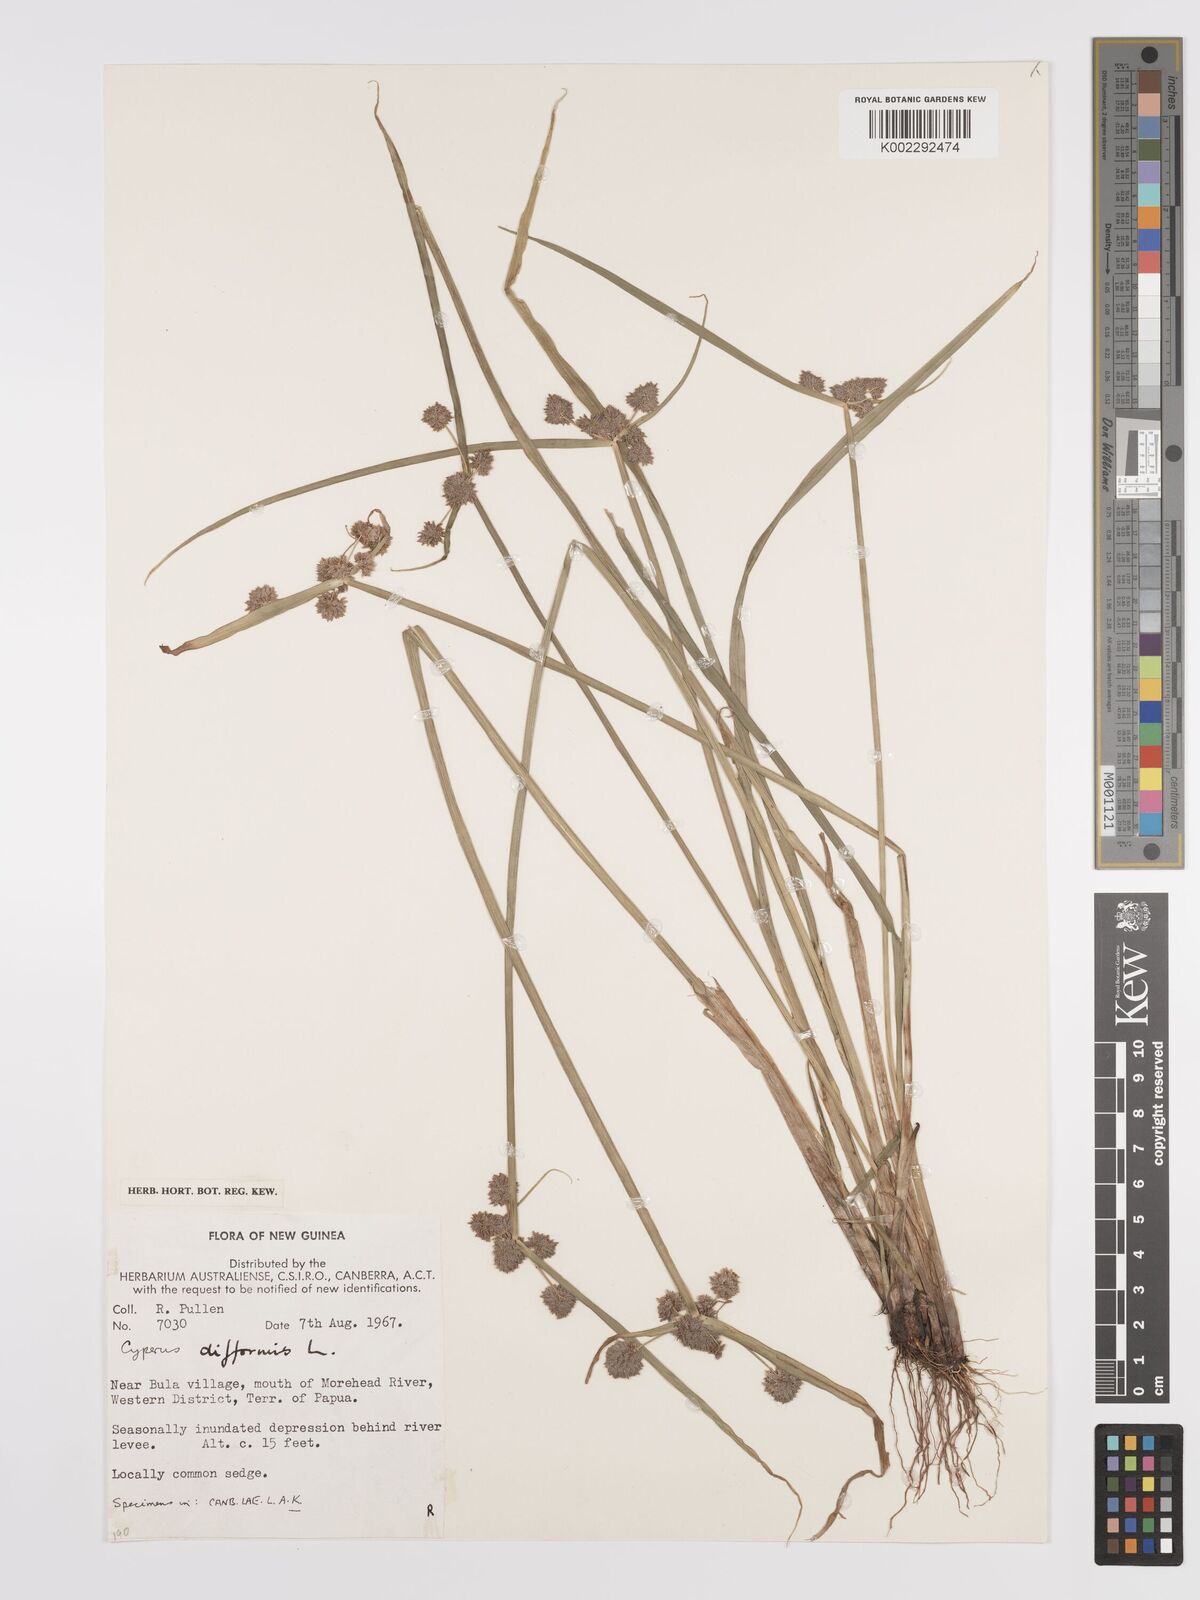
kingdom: Plantae
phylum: Tracheophyta
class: Liliopsida
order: Poales
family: Cyperaceae
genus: Cyperus
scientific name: Cyperus difformis
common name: Variable flatsedge
